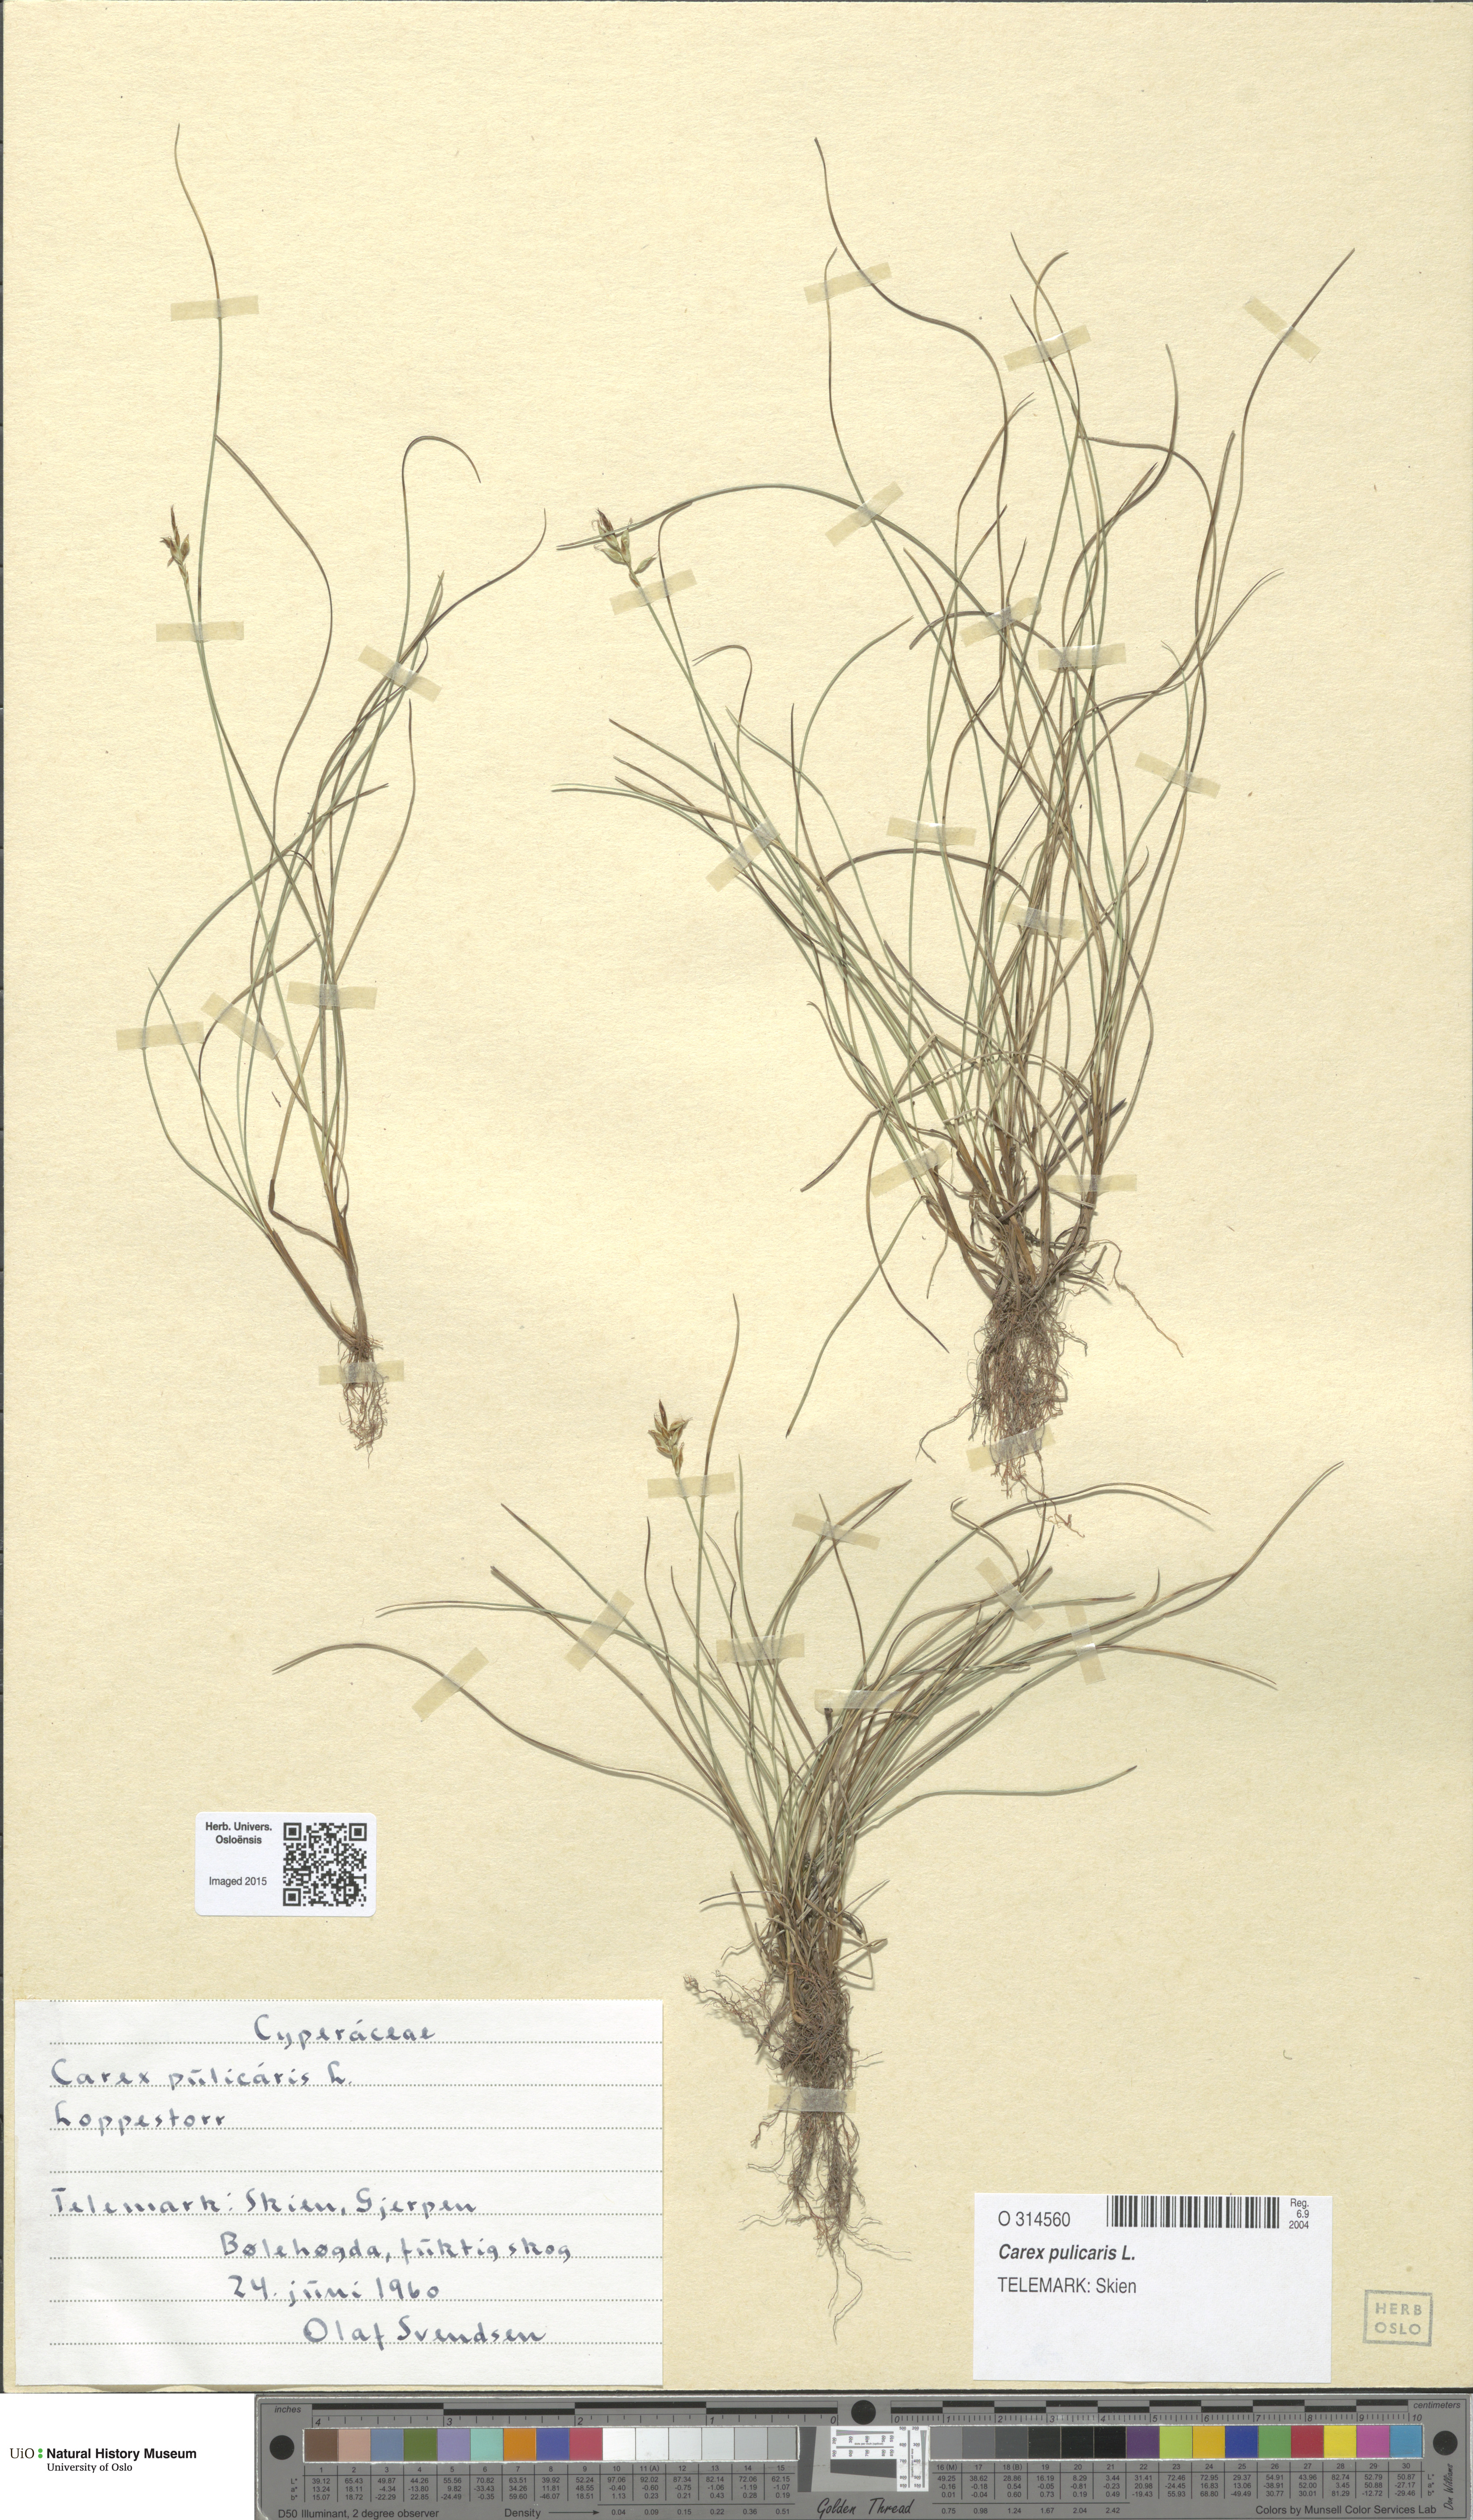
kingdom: Plantae
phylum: Tracheophyta
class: Liliopsida
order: Poales
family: Cyperaceae
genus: Carex
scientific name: Carex pulicaris
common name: Flea sedge
